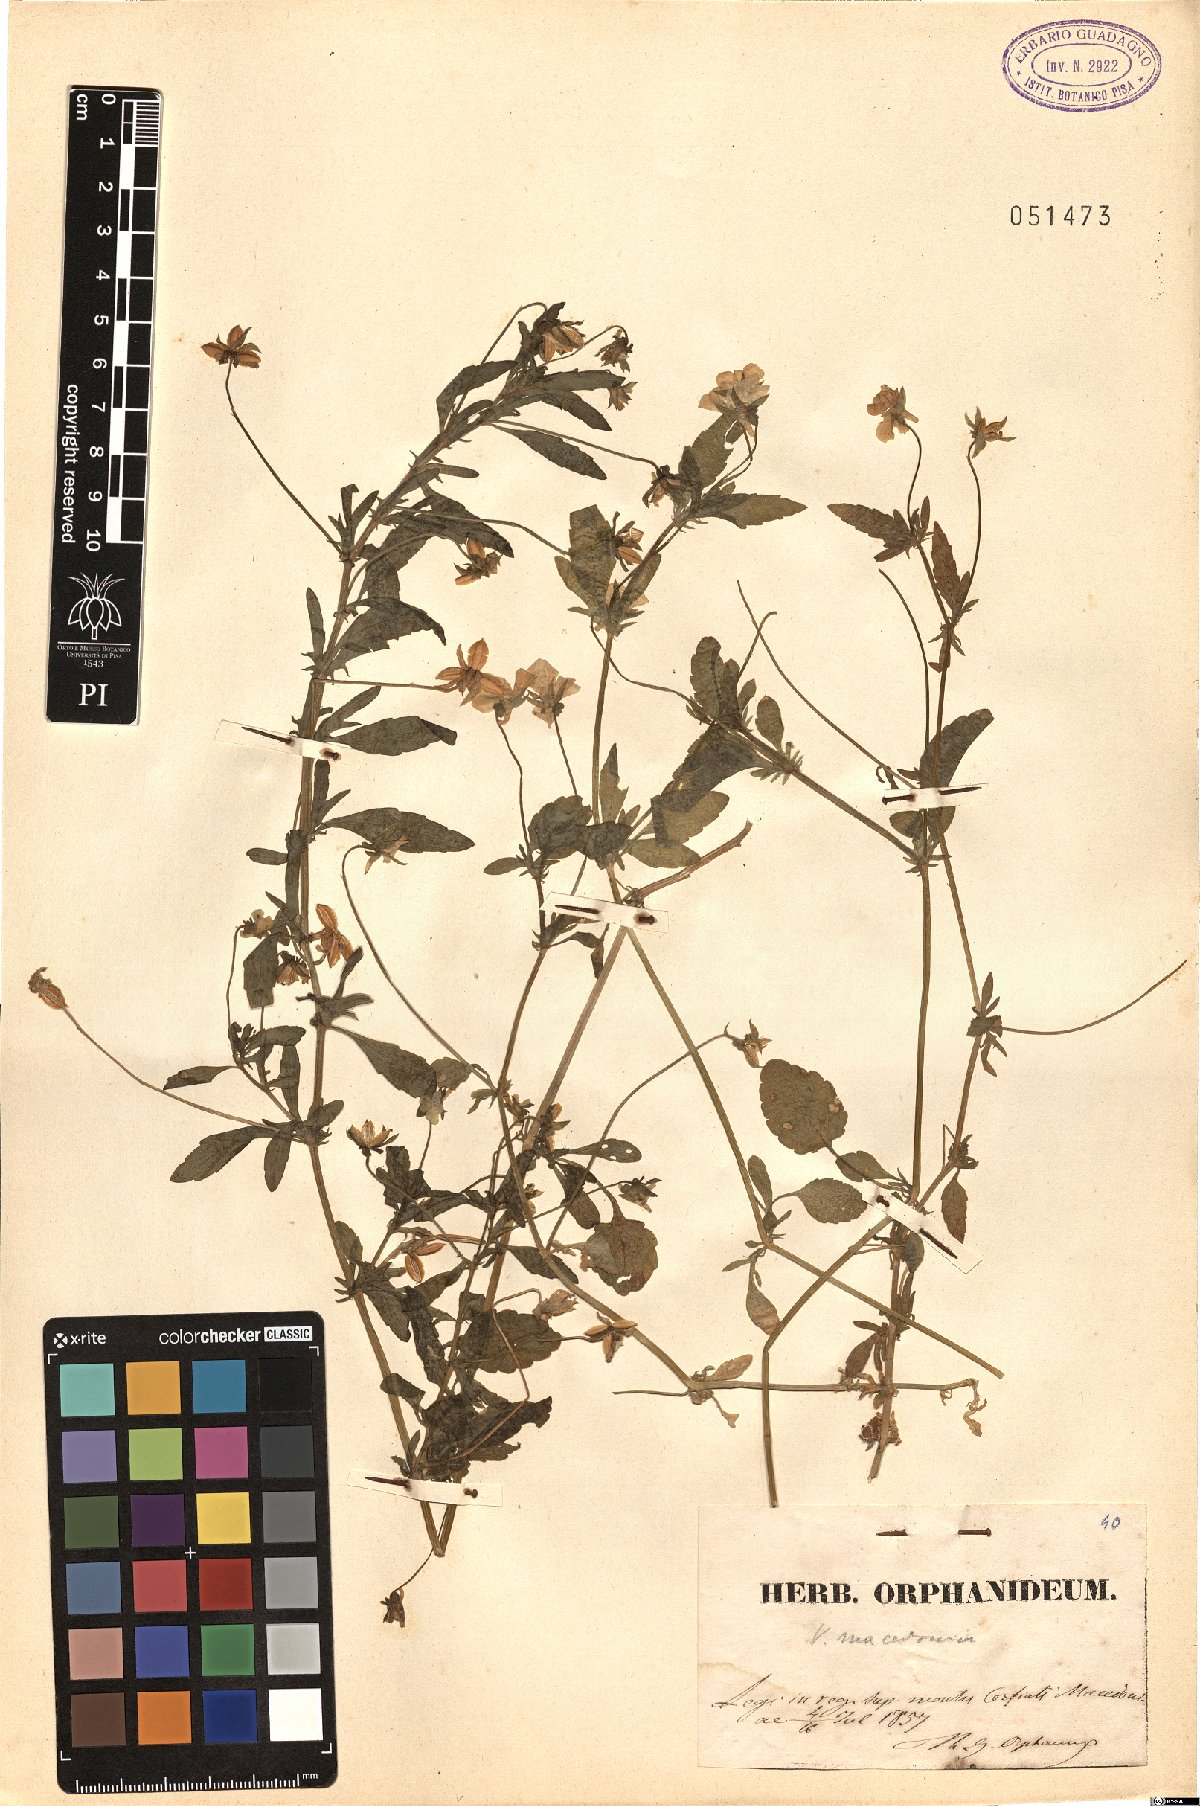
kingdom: Plantae
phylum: Tracheophyta
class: Magnoliopsida
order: Malpighiales
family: Violaceae
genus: Viola
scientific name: Viola tricolor
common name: Pansy
